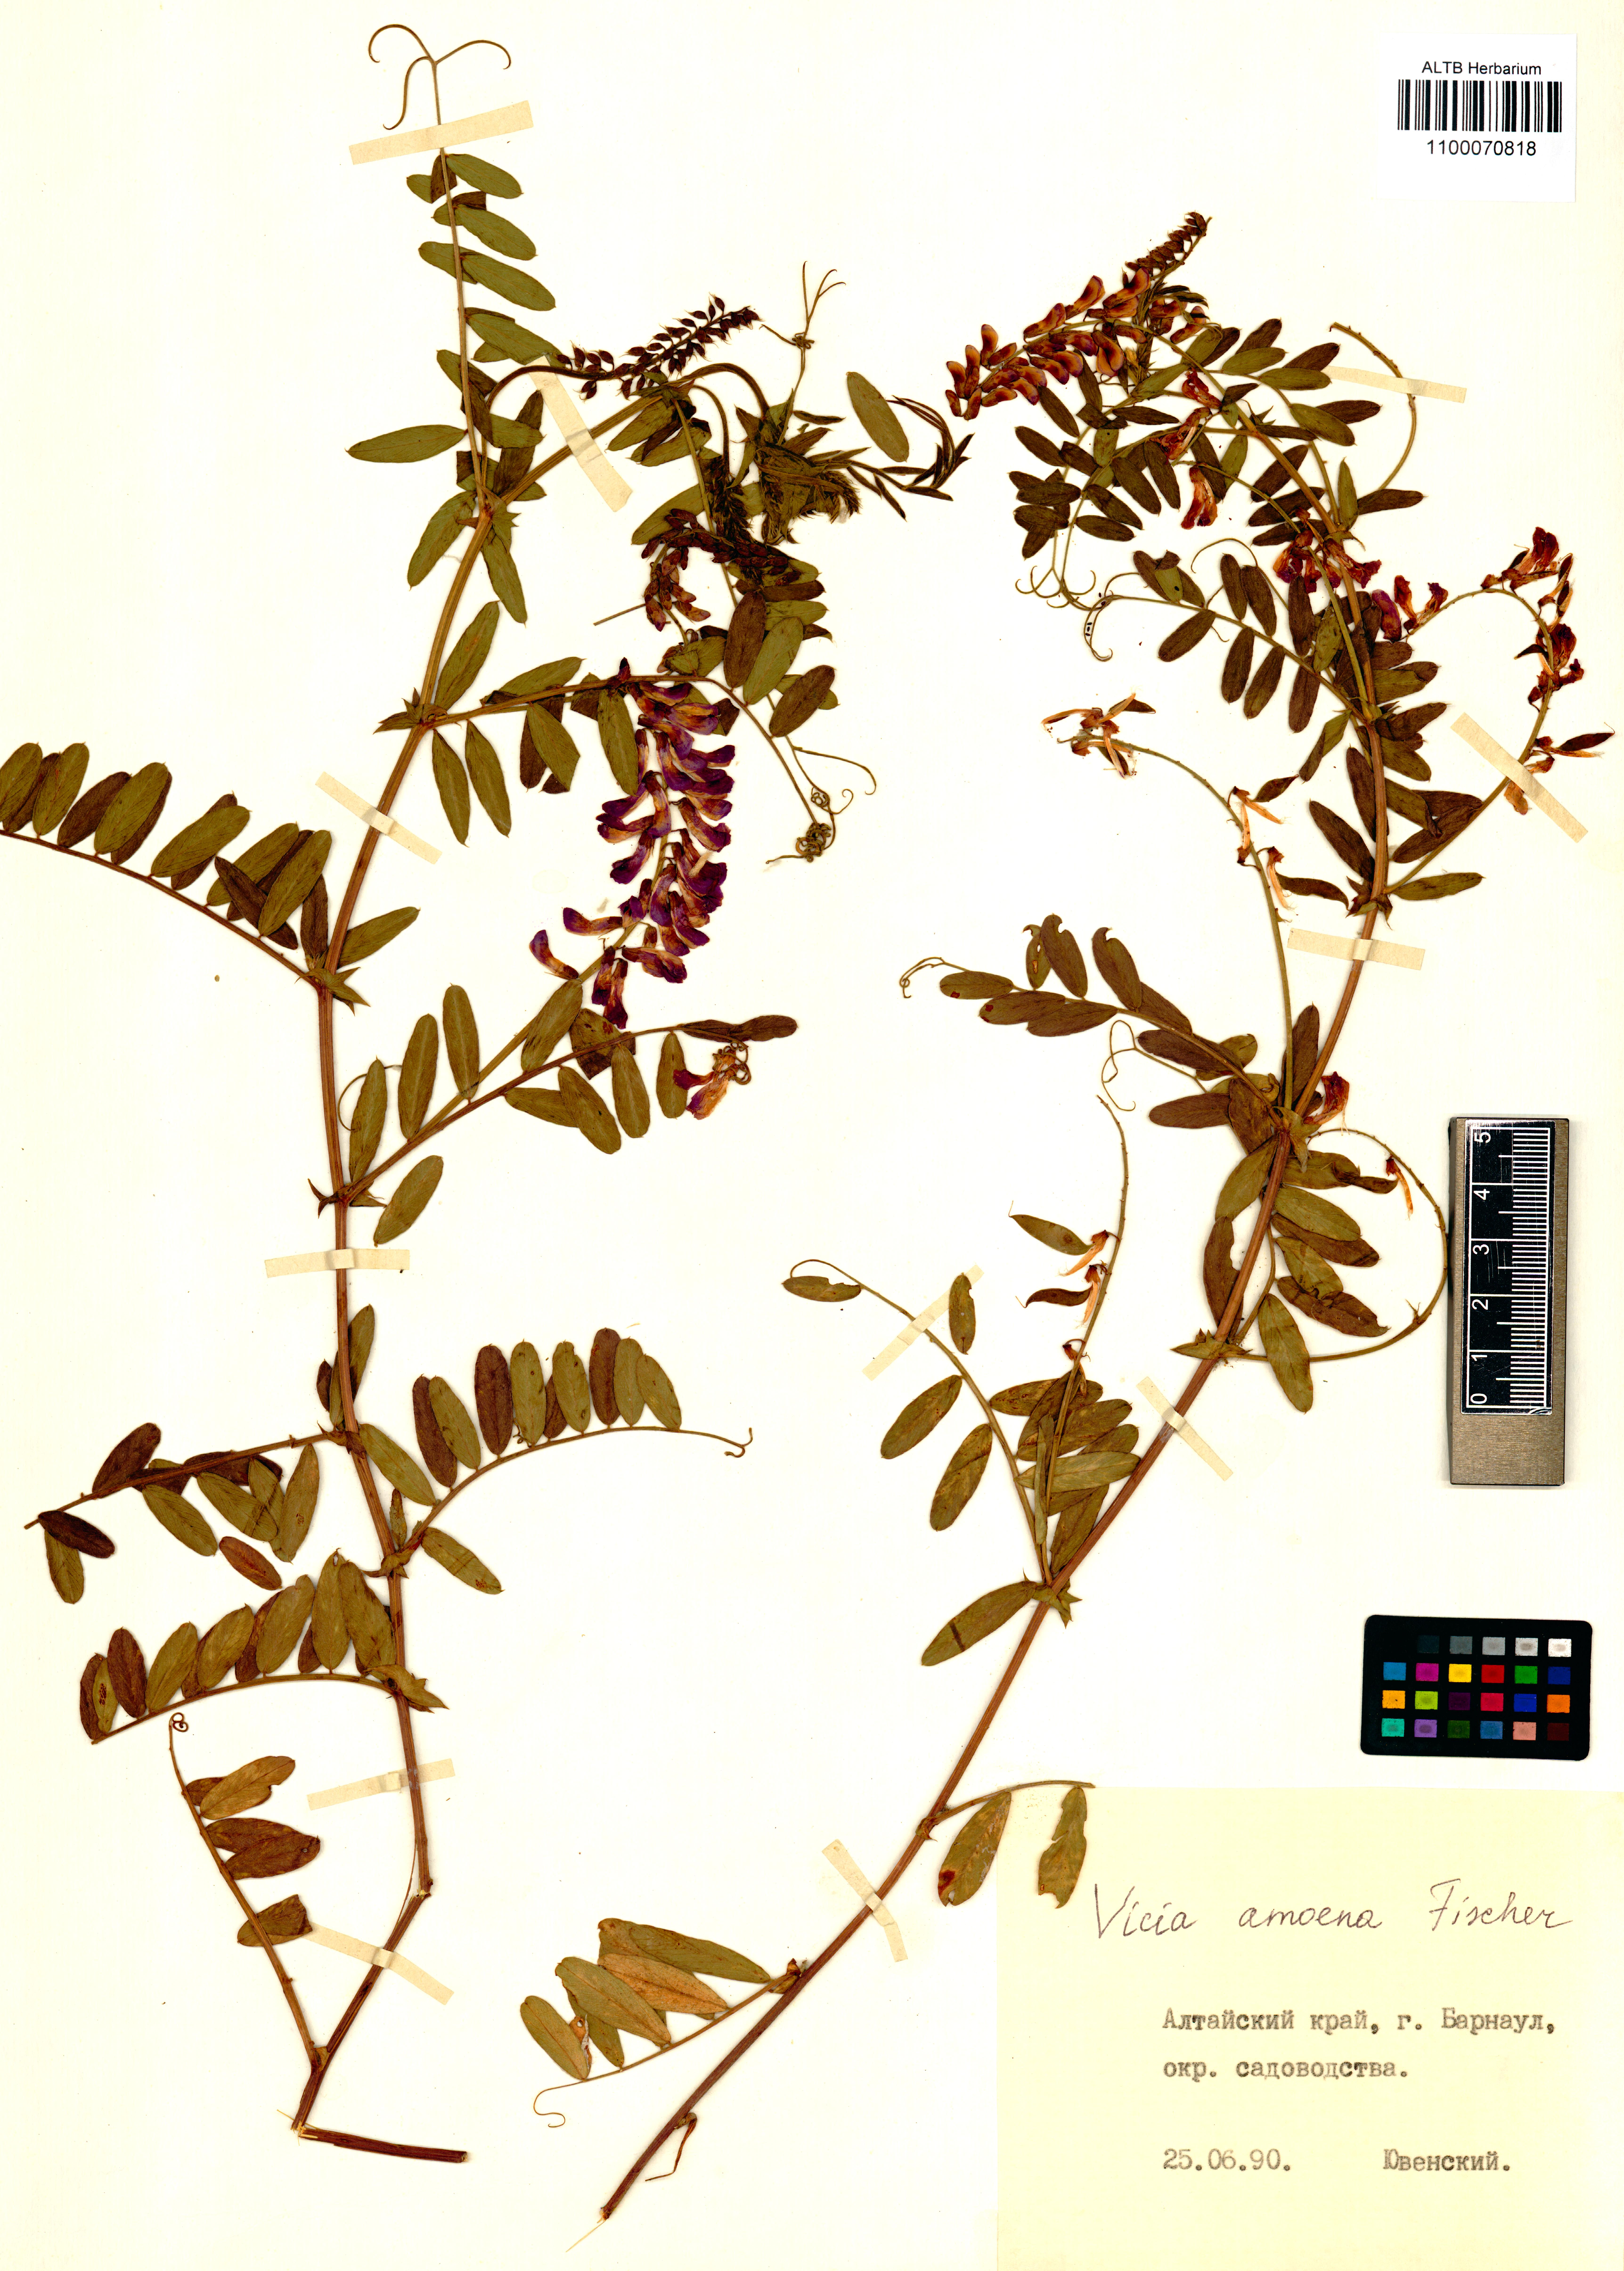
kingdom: Plantae
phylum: Tracheophyta
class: Magnoliopsida
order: Fabales
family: Fabaceae
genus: Vicia
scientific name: Vicia amoena
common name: Cheder ebs
